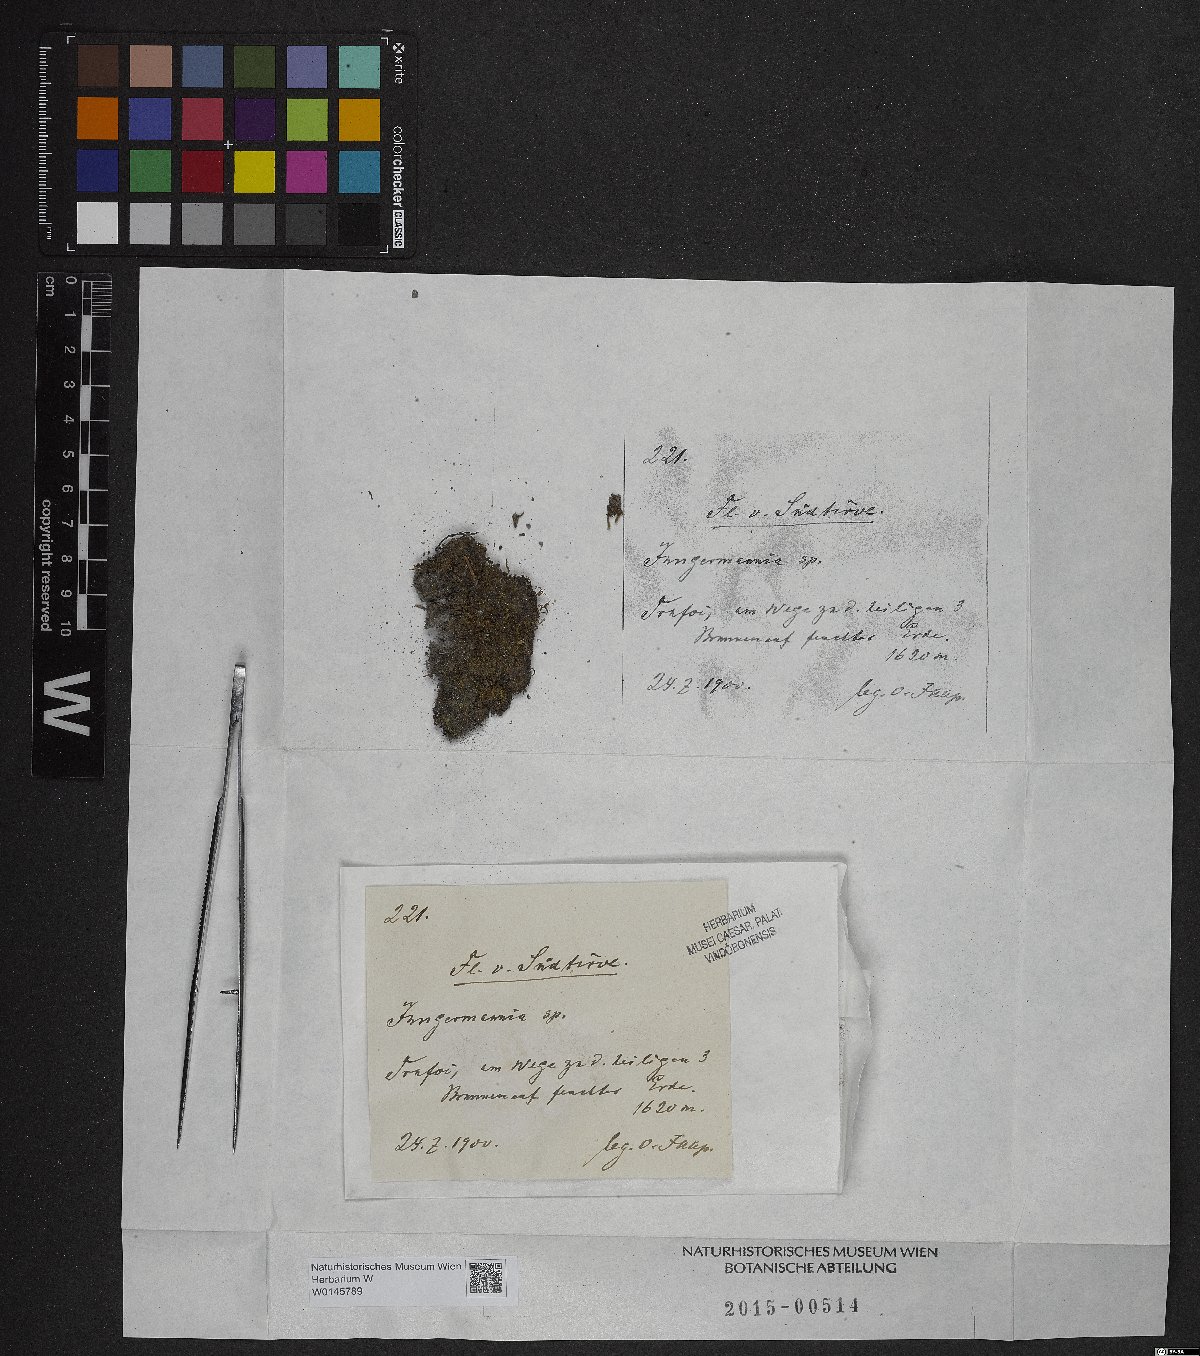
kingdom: Plantae
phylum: Marchantiophyta
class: Jungermanniopsida
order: Jungermanniales
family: Jungermanniaceae
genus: Jungermannia
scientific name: Jungermannia
